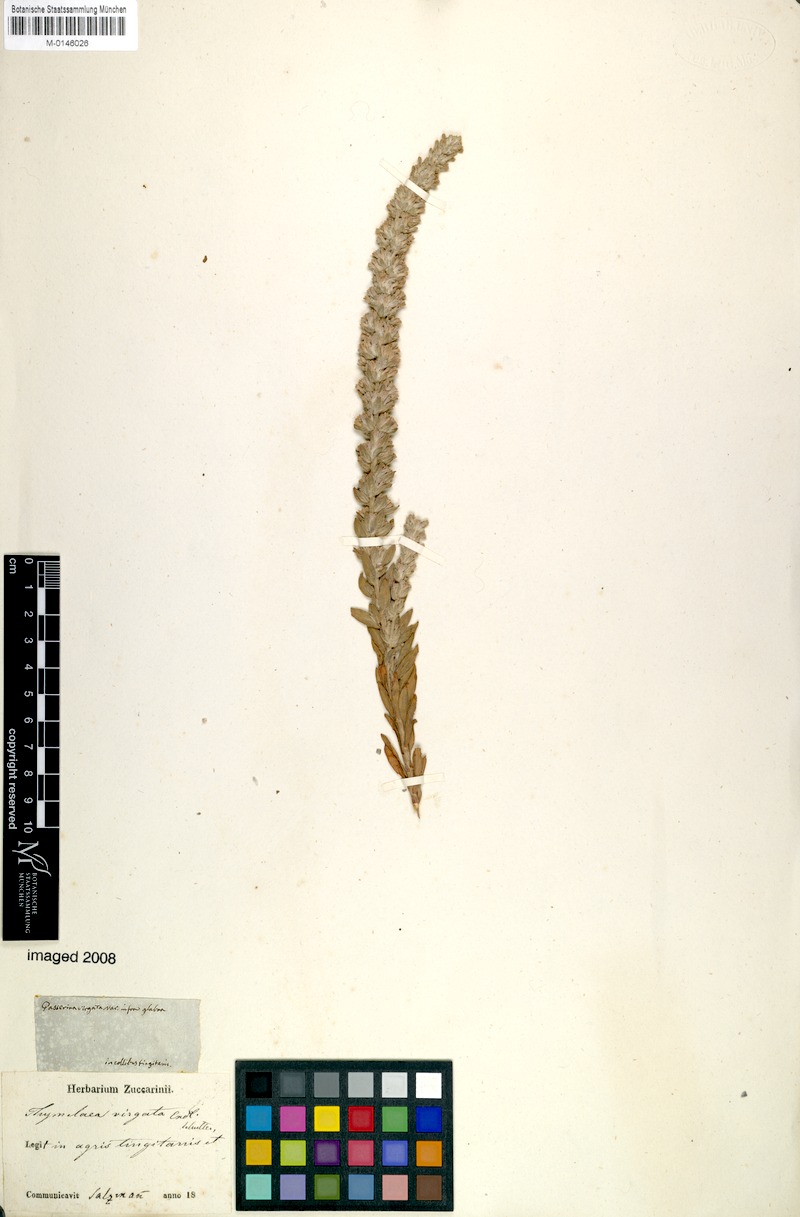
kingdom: Plantae
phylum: Tracheophyta
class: Magnoliopsida
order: Malvales
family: Thymelaeaceae
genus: Thymelaea
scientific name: Thymelaea virgata
